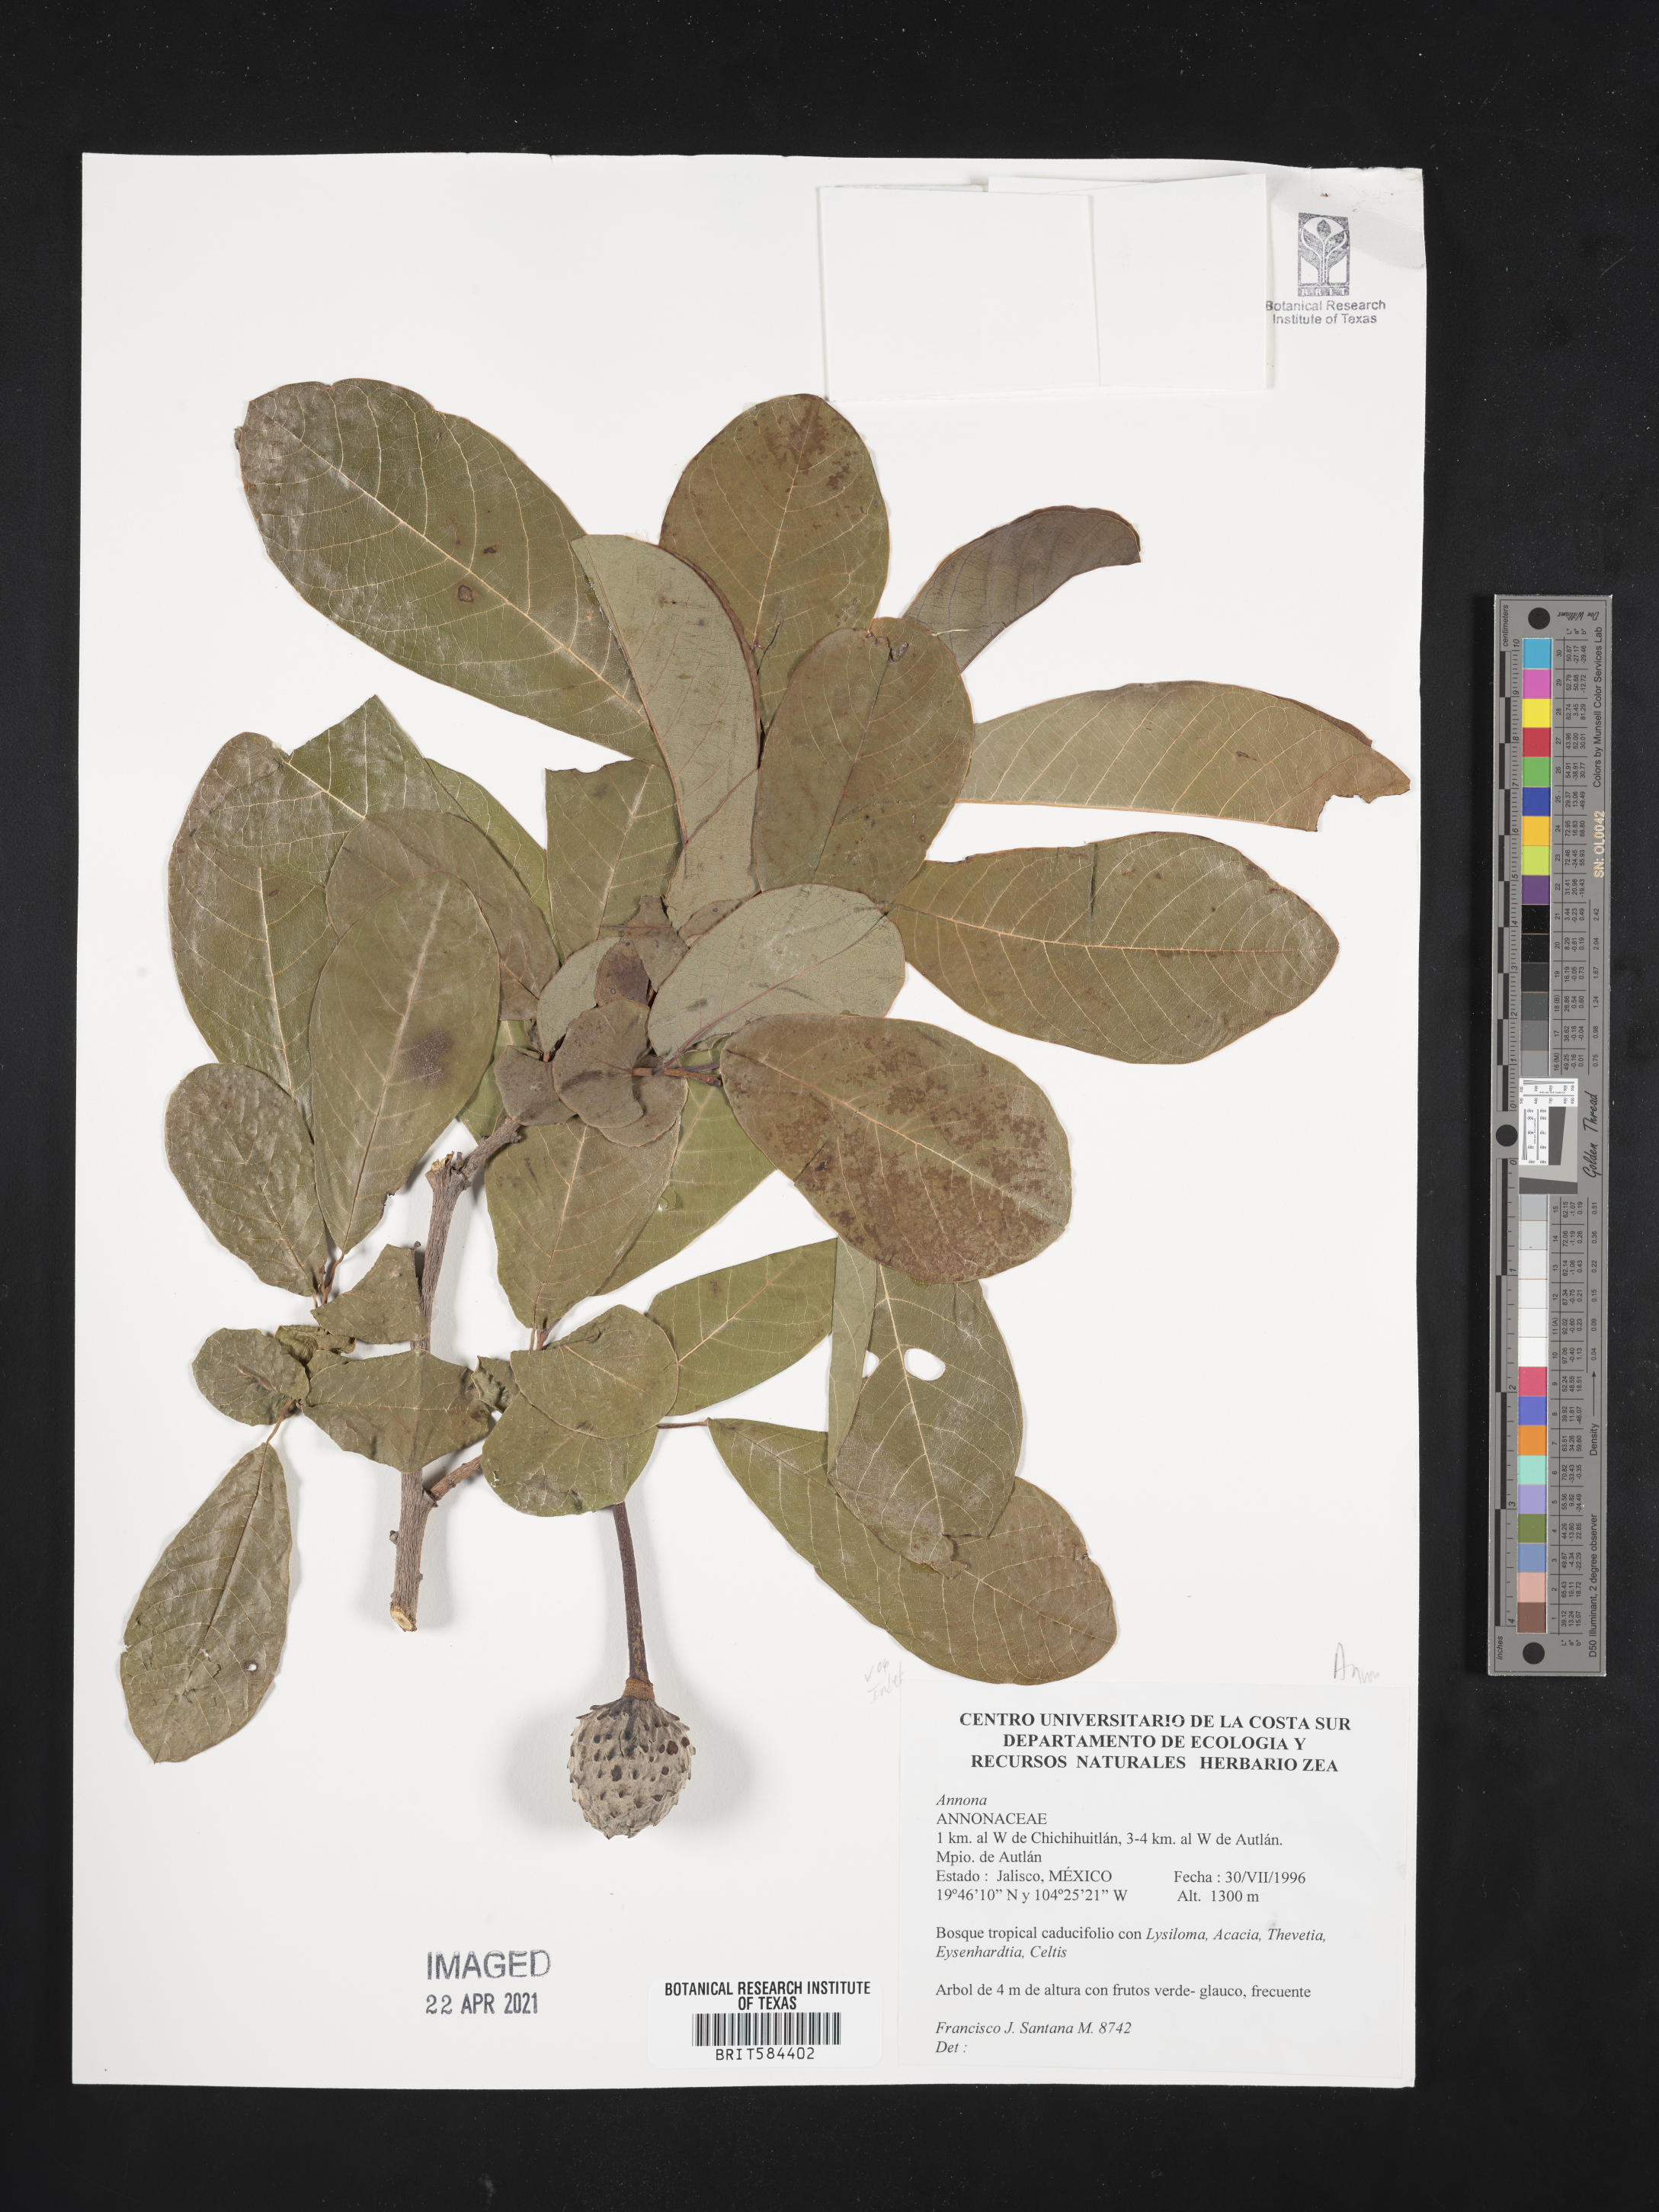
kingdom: Plantae
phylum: Tracheophyta
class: Magnoliopsida
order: Magnoliales
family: Annonaceae
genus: Annona
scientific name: Annona
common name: Anona
